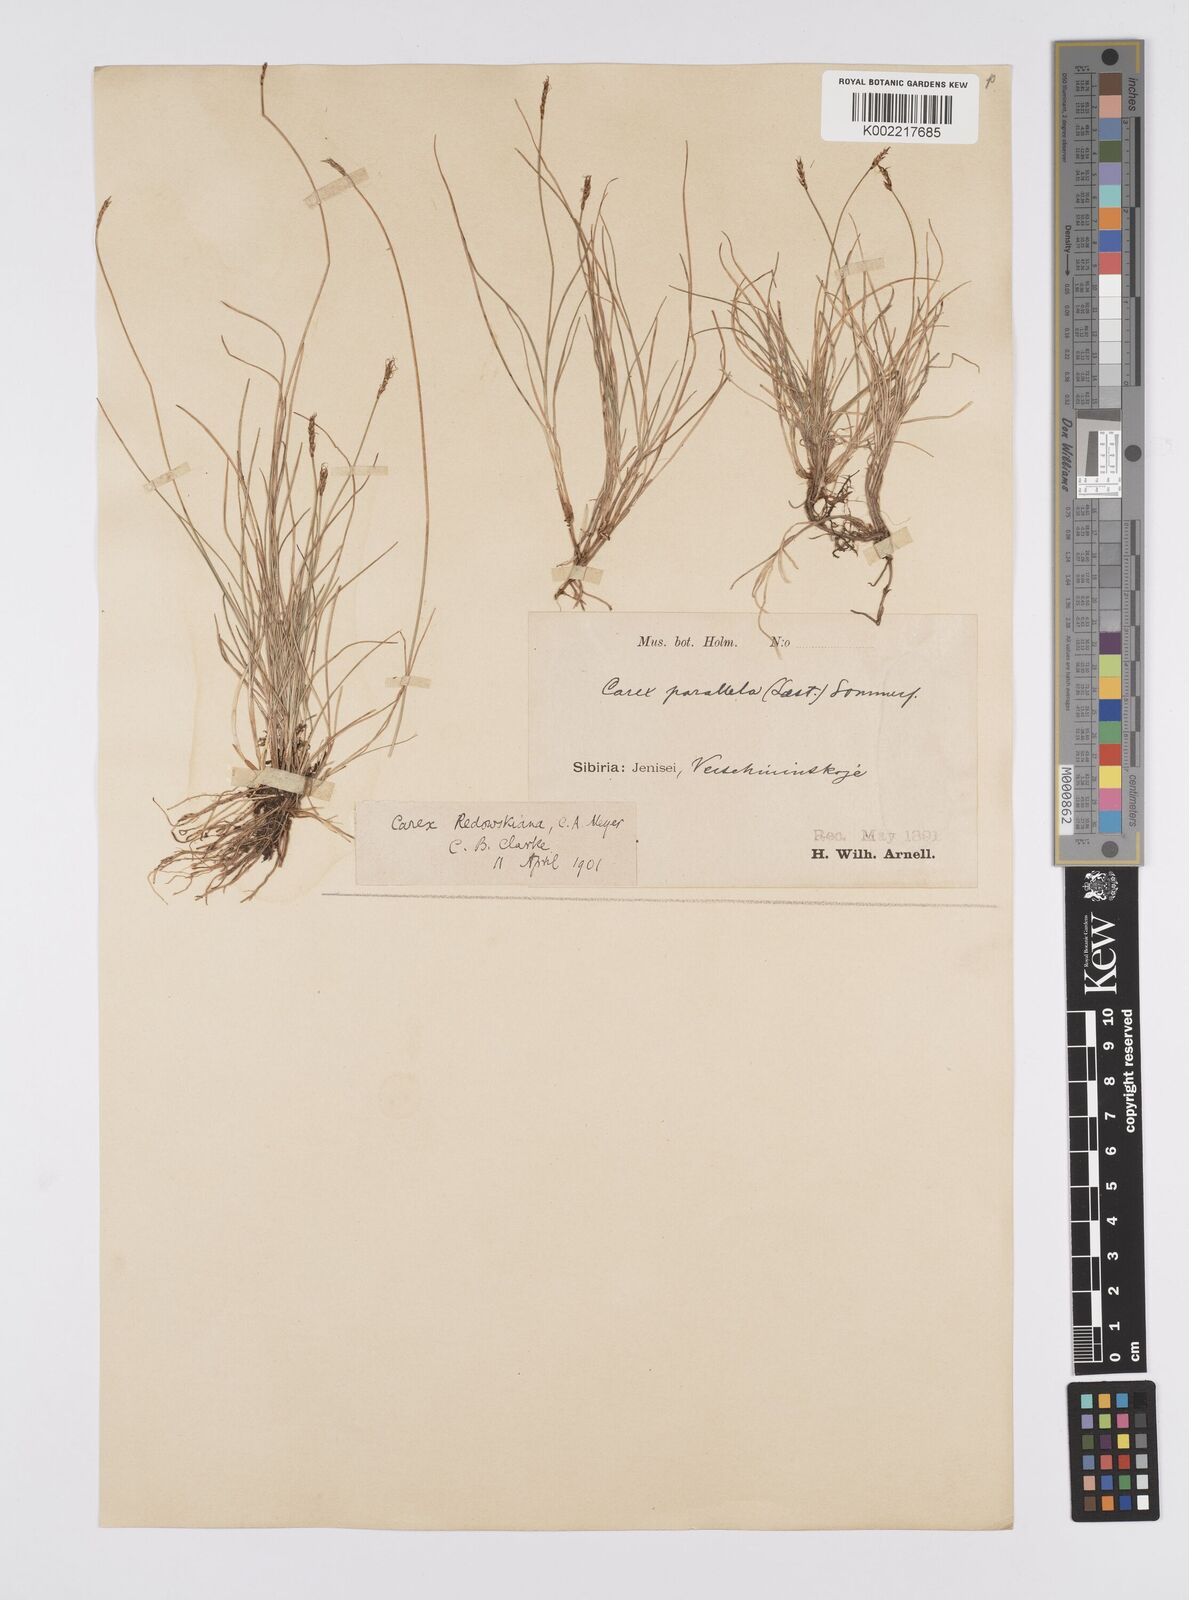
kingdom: Plantae
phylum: Tracheophyta
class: Liliopsida
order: Poales
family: Cyperaceae
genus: Carex
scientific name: Carex parallela
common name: Parallel sedge
